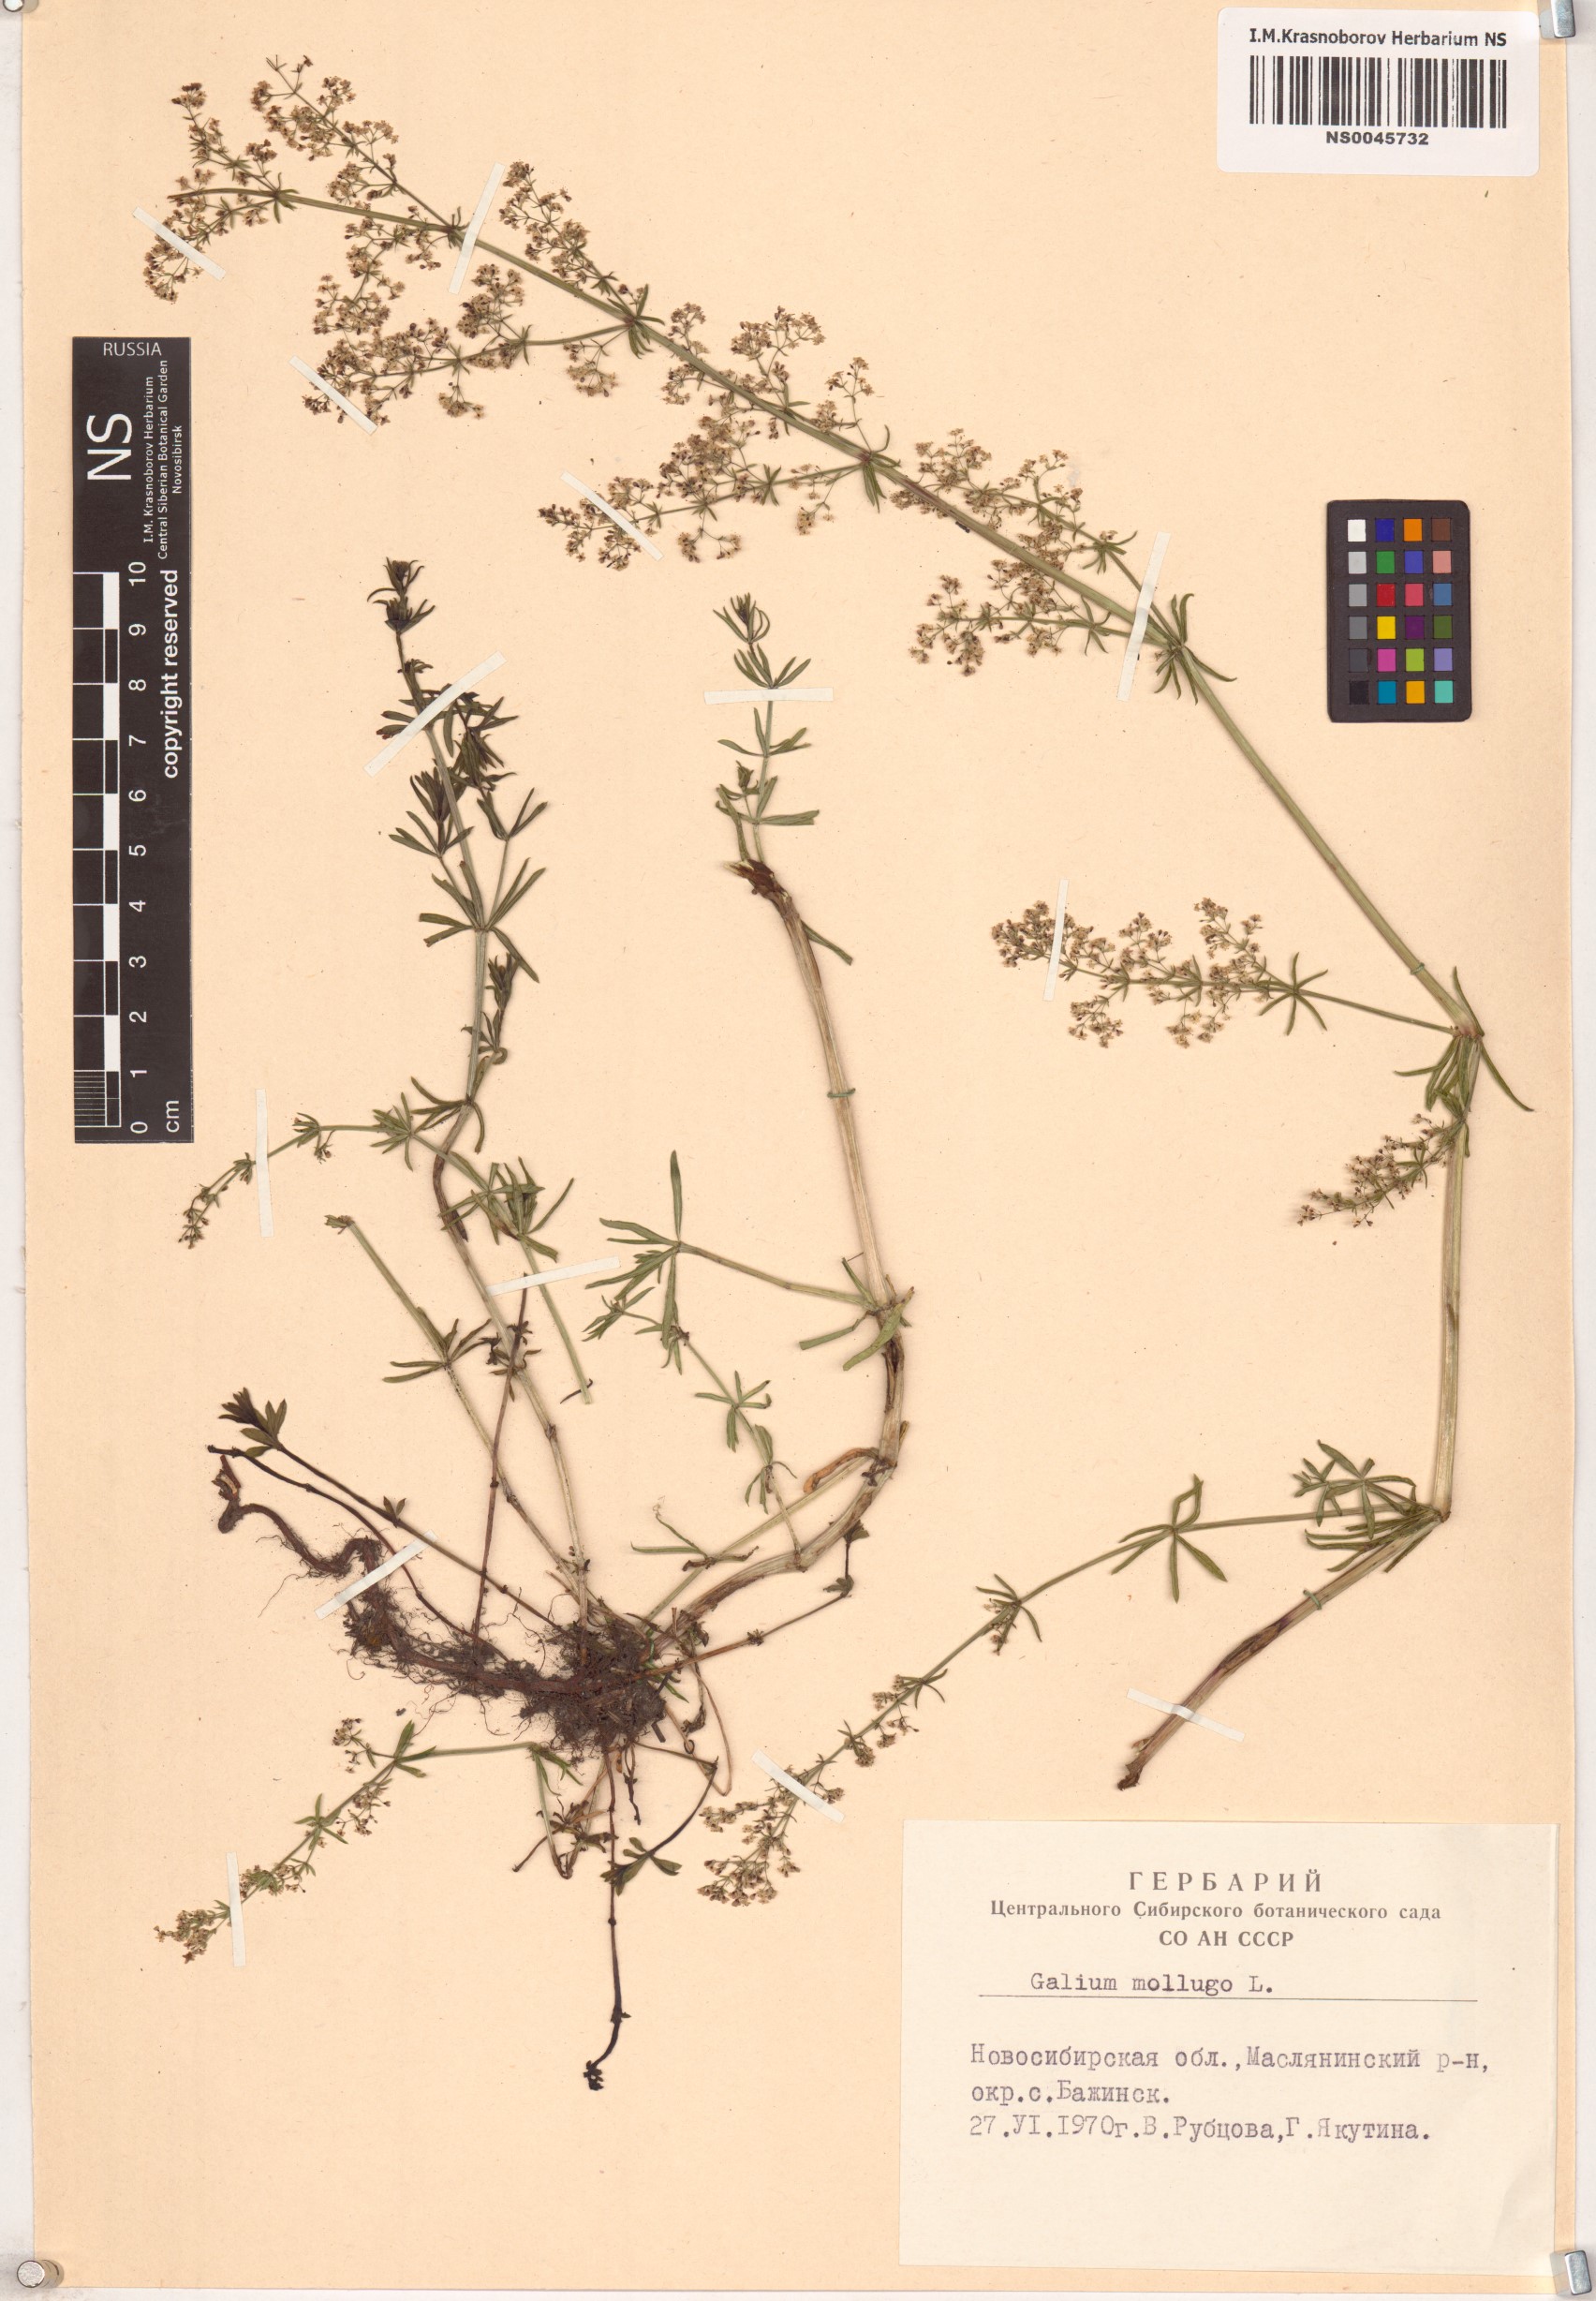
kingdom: Plantae
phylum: Tracheophyta
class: Magnoliopsida
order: Gentianales
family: Rubiaceae
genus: Galium
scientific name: Galium mollugo
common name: Hedge bedstraw
